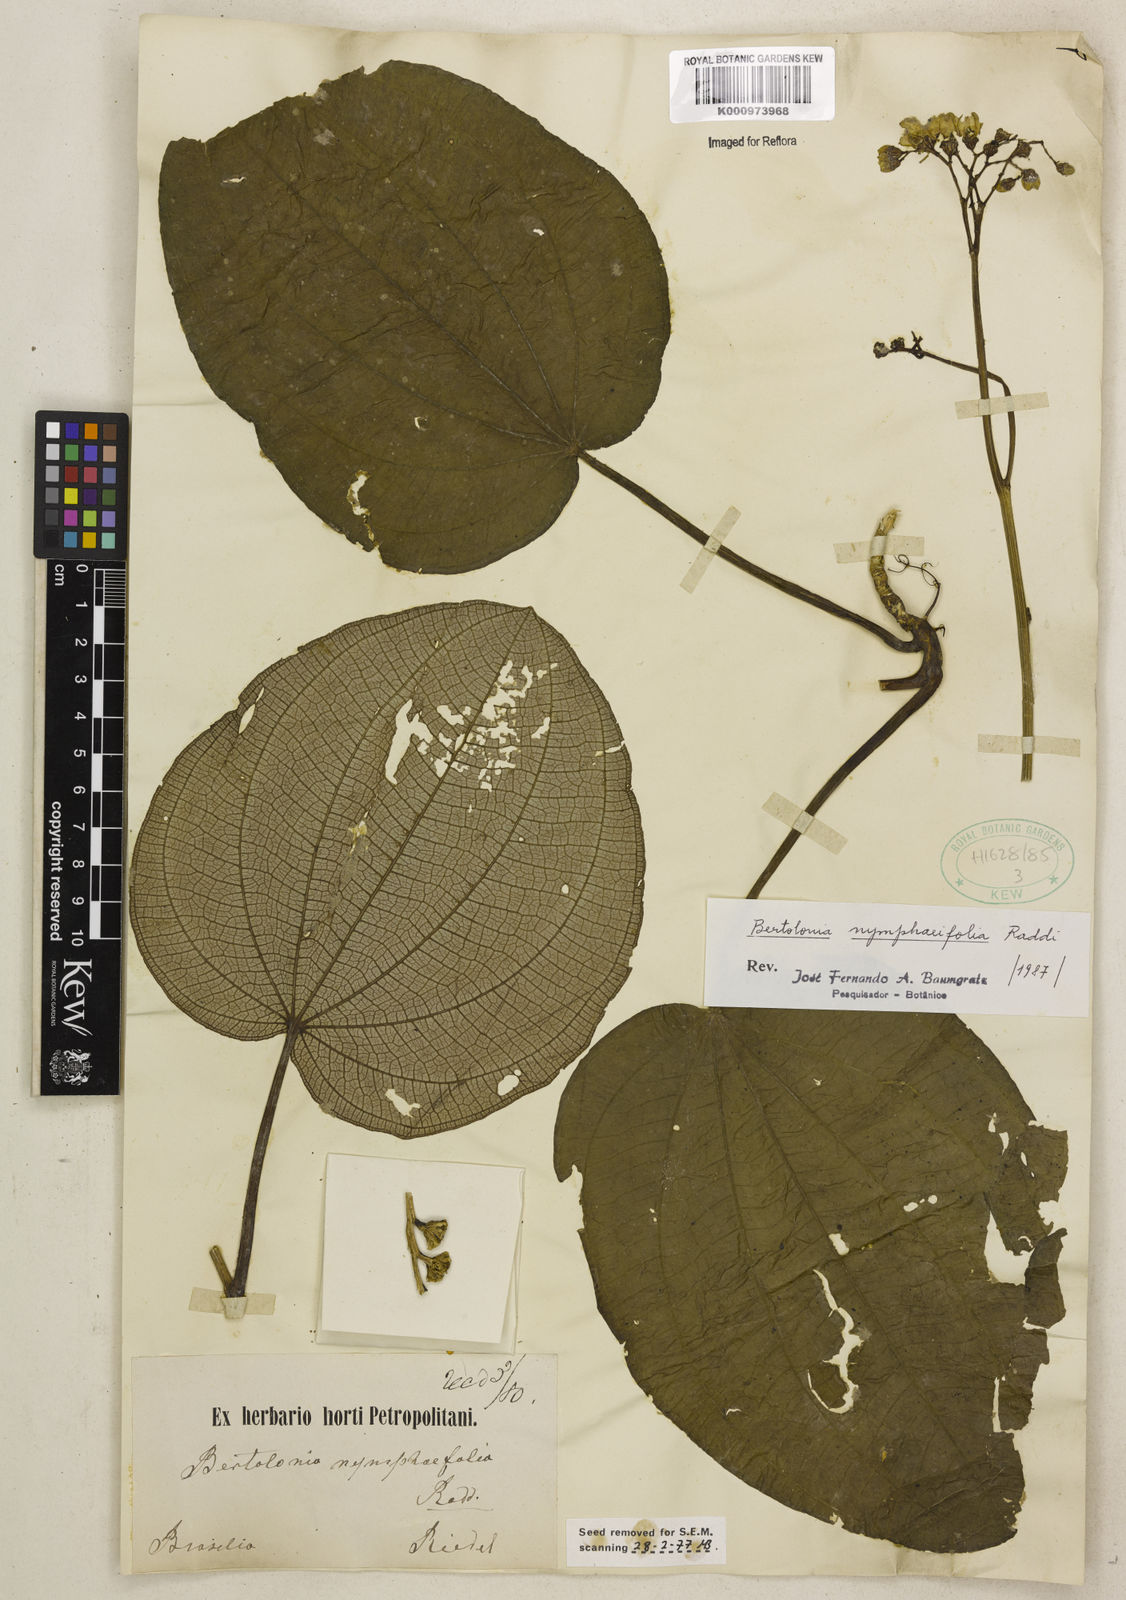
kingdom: Plantae
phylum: Tracheophyta
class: Magnoliopsida
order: Myrtales
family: Melastomataceae
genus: Bertolonia
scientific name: Bertolonia nymphaeifolia
